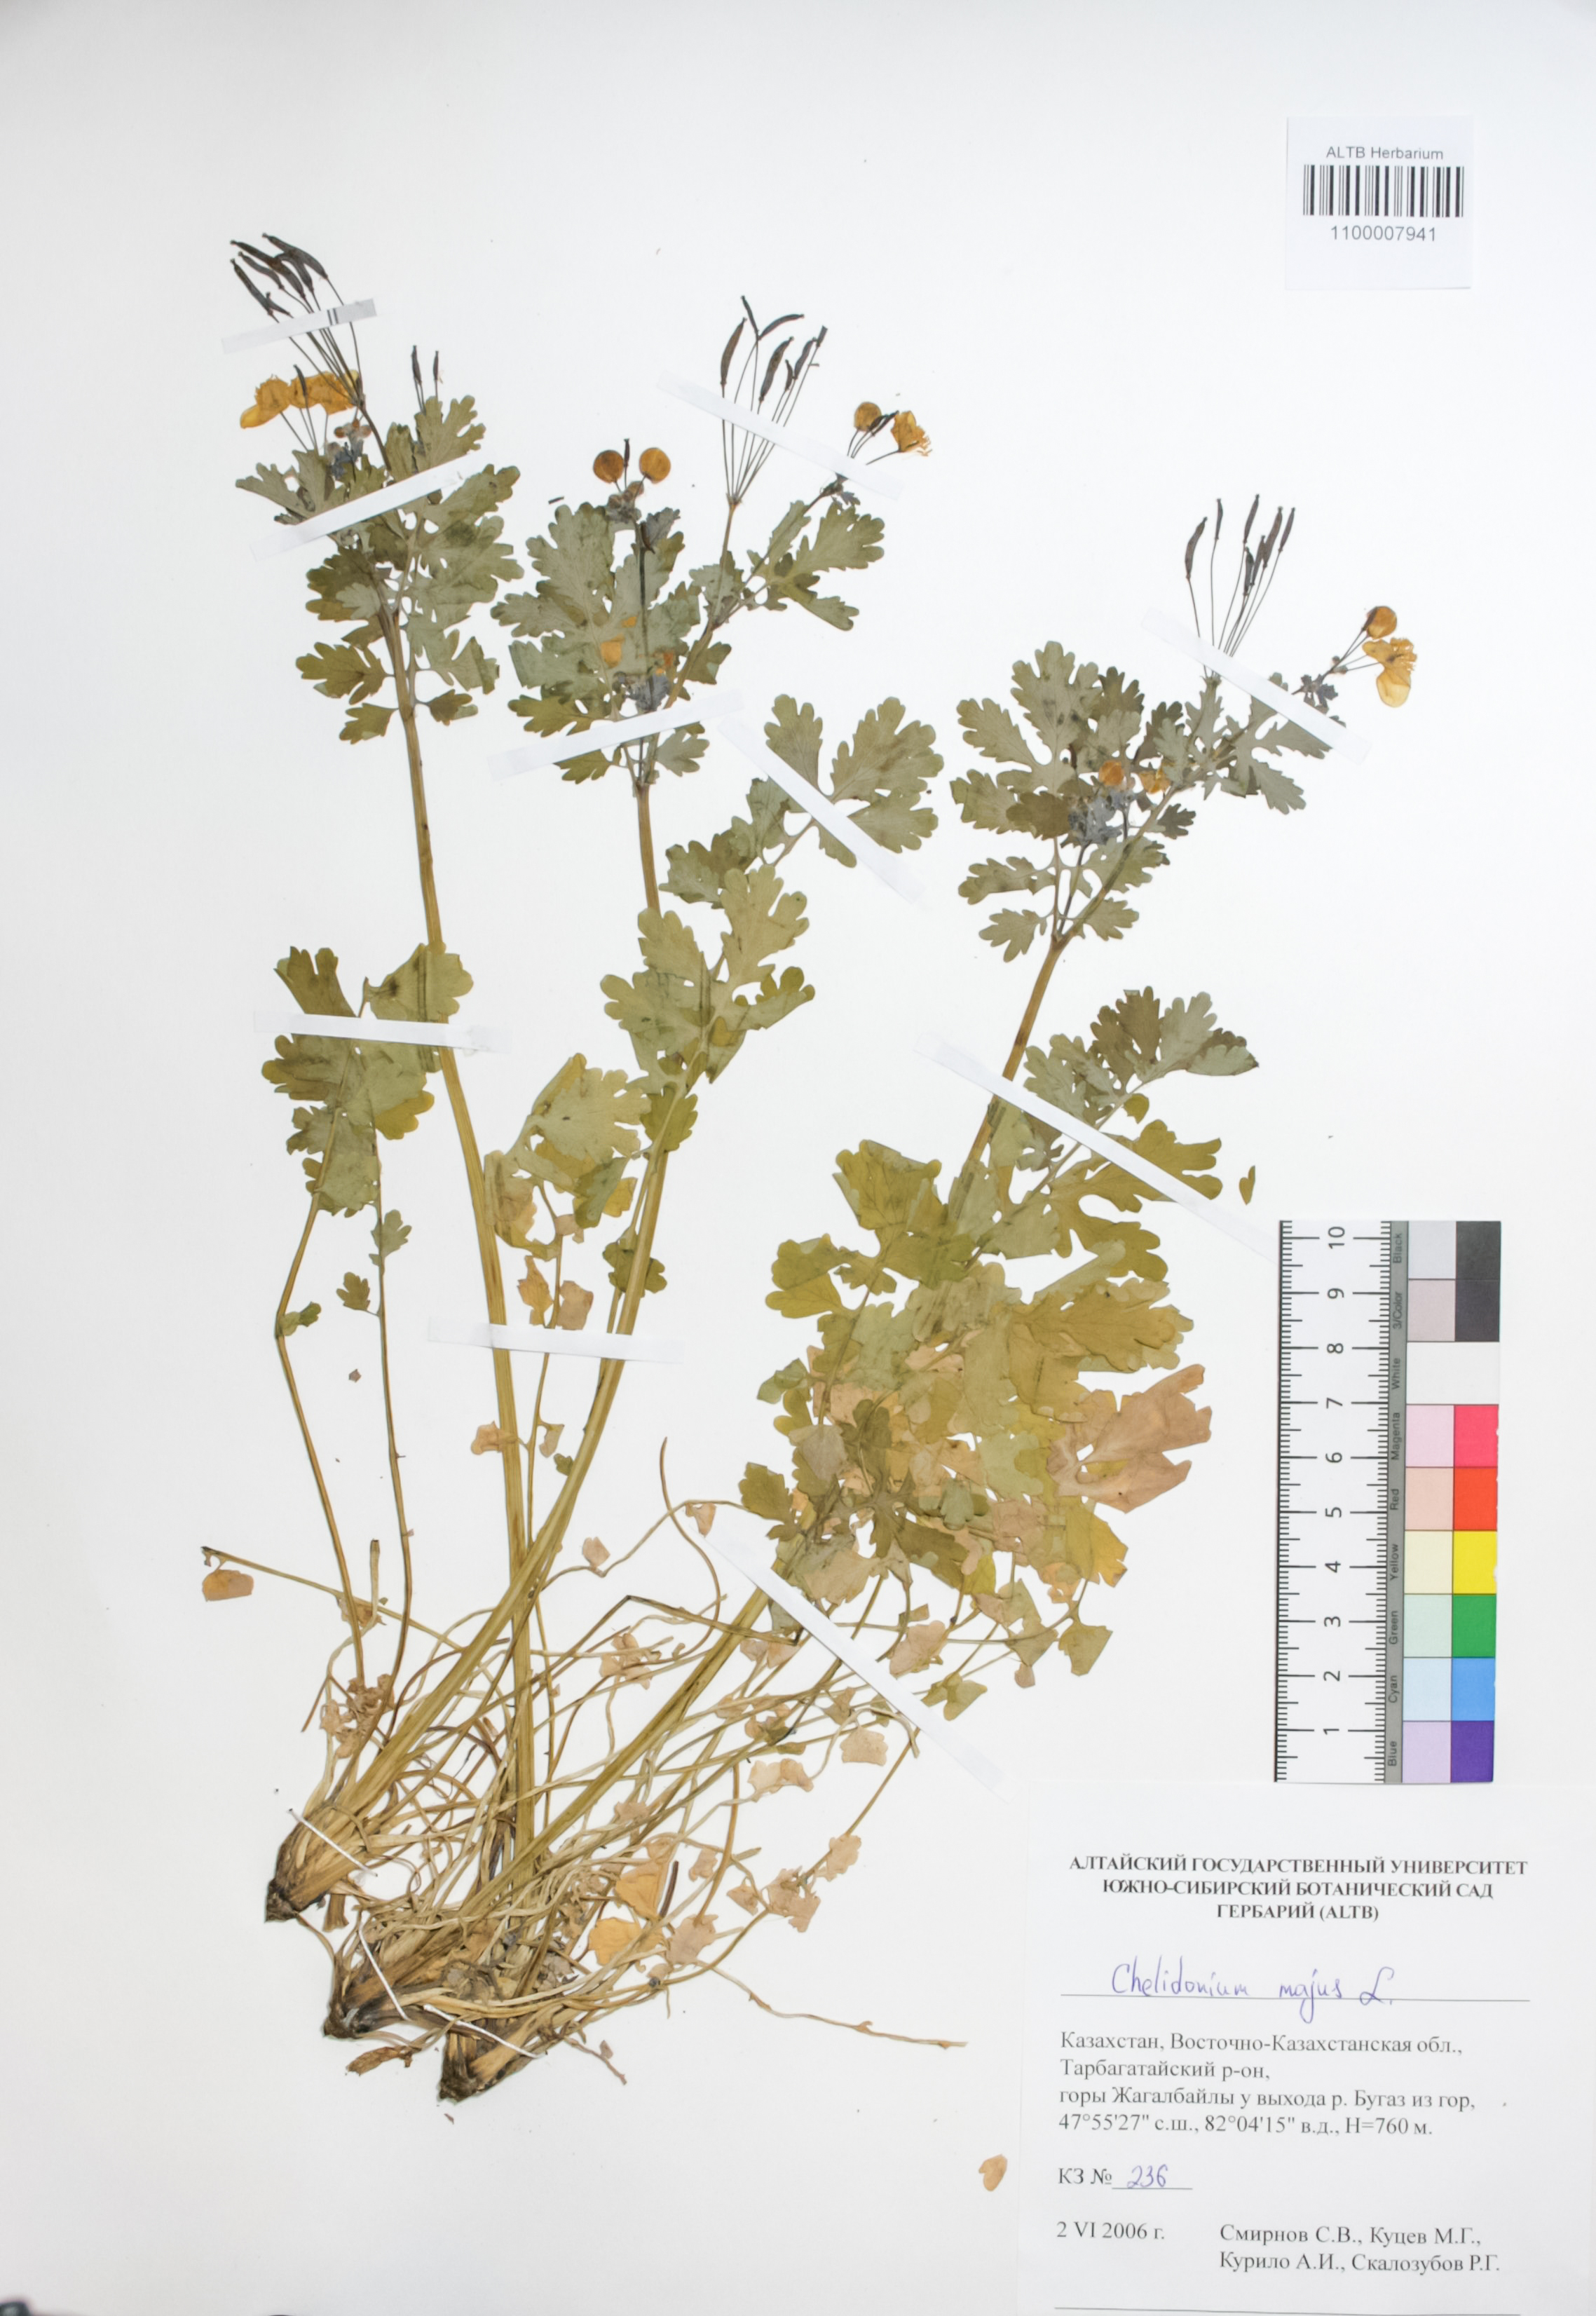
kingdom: Plantae
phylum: Tracheophyta
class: Magnoliopsida
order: Ranunculales
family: Papaveraceae
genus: Chelidonium
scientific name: Chelidonium majus
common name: Greater celandine
